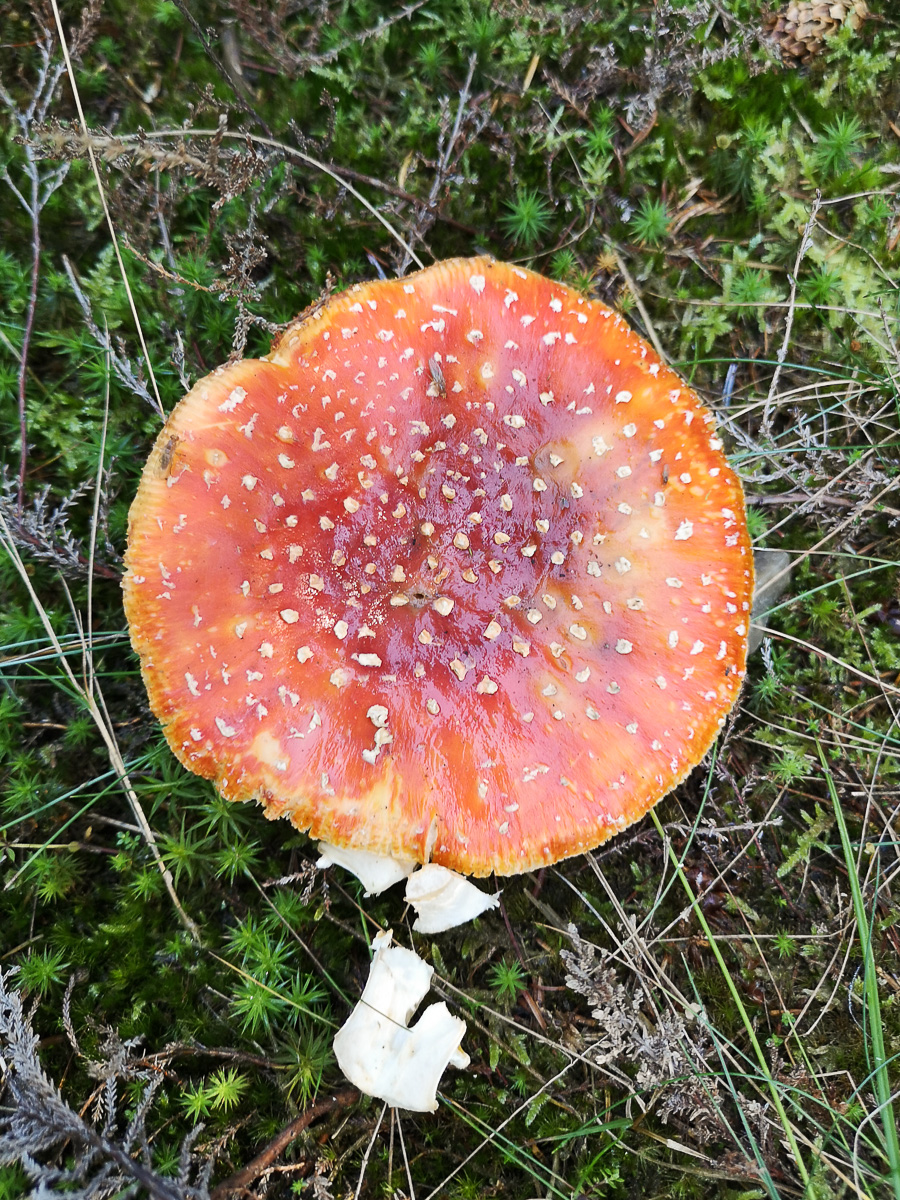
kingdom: Fungi
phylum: Basidiomycota
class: Agaricomycetes
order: Agaricales
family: Amanitaceae
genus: Amanita
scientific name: Amanita muscaria
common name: rød fluesvamp
